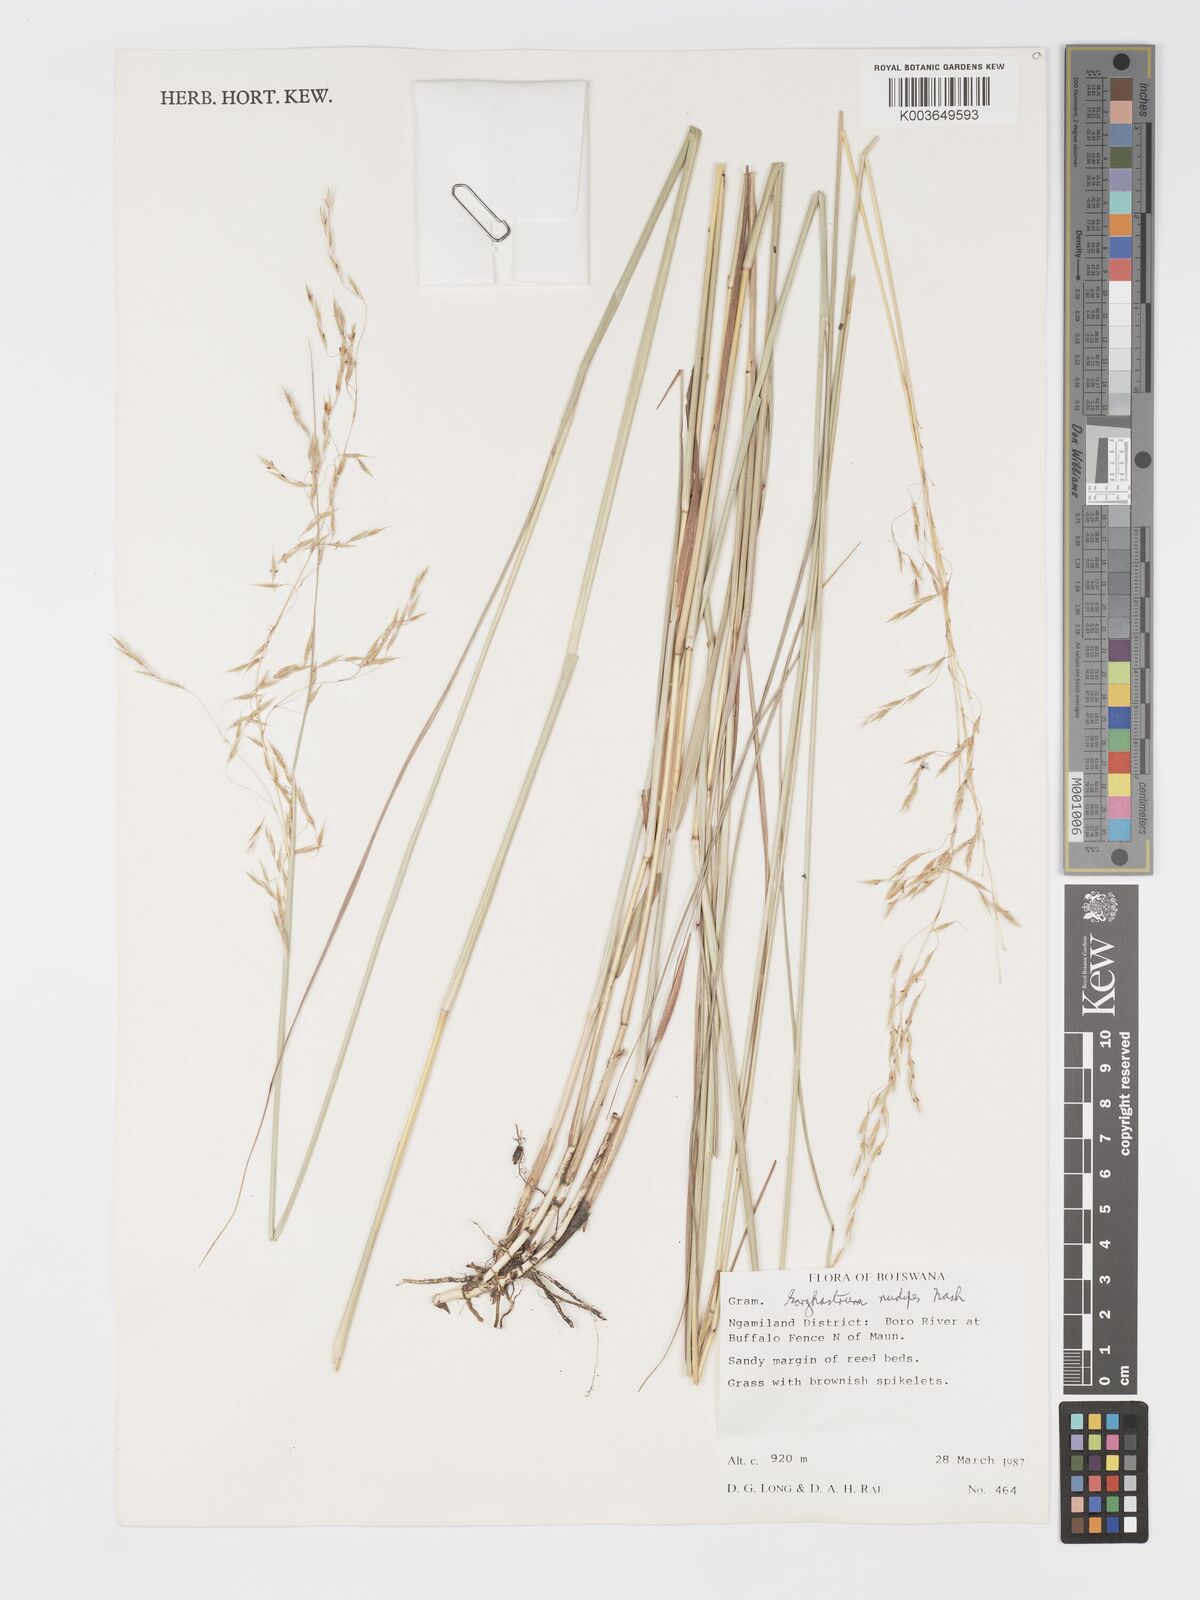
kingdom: Plantae
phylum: Tracheophyta
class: Liliopsida
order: Poales
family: Poaceae
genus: Sorghastrum
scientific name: Sorghastrum nudipes
